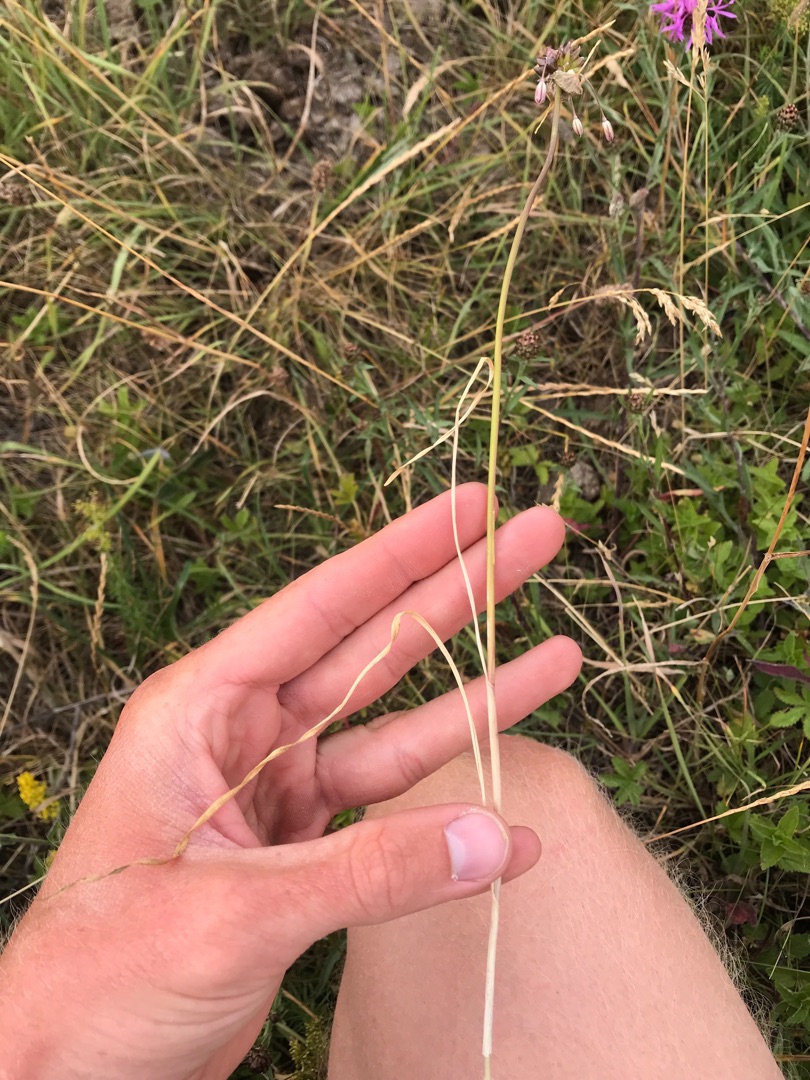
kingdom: Plantae
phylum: Tracheophyta
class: Liliopsida
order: Asparagales
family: Amaryllidaceae
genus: Allium
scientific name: Allium oleraceum
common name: Vild løg
